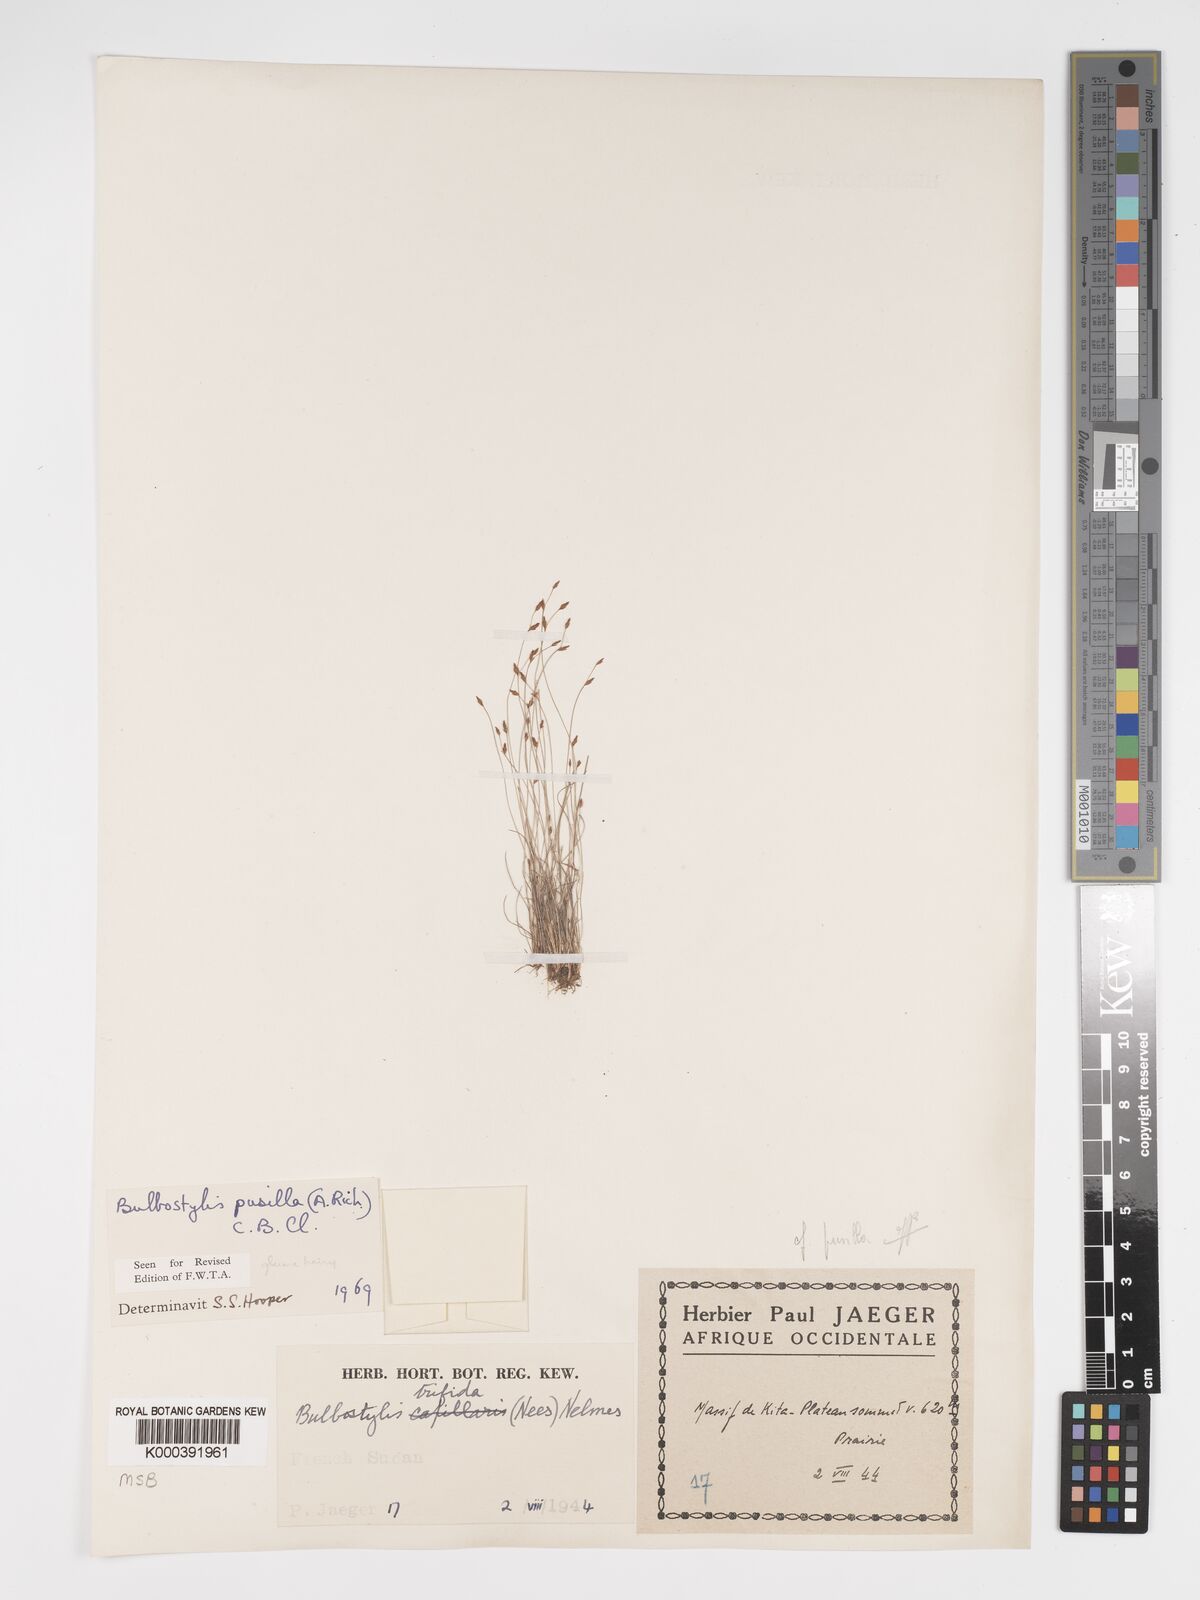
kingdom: Plantae
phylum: Tracheophyta
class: Liliopsida
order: Poales
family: Cyperaceae
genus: Bulbostylis
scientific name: Bulbostylis pusilla
